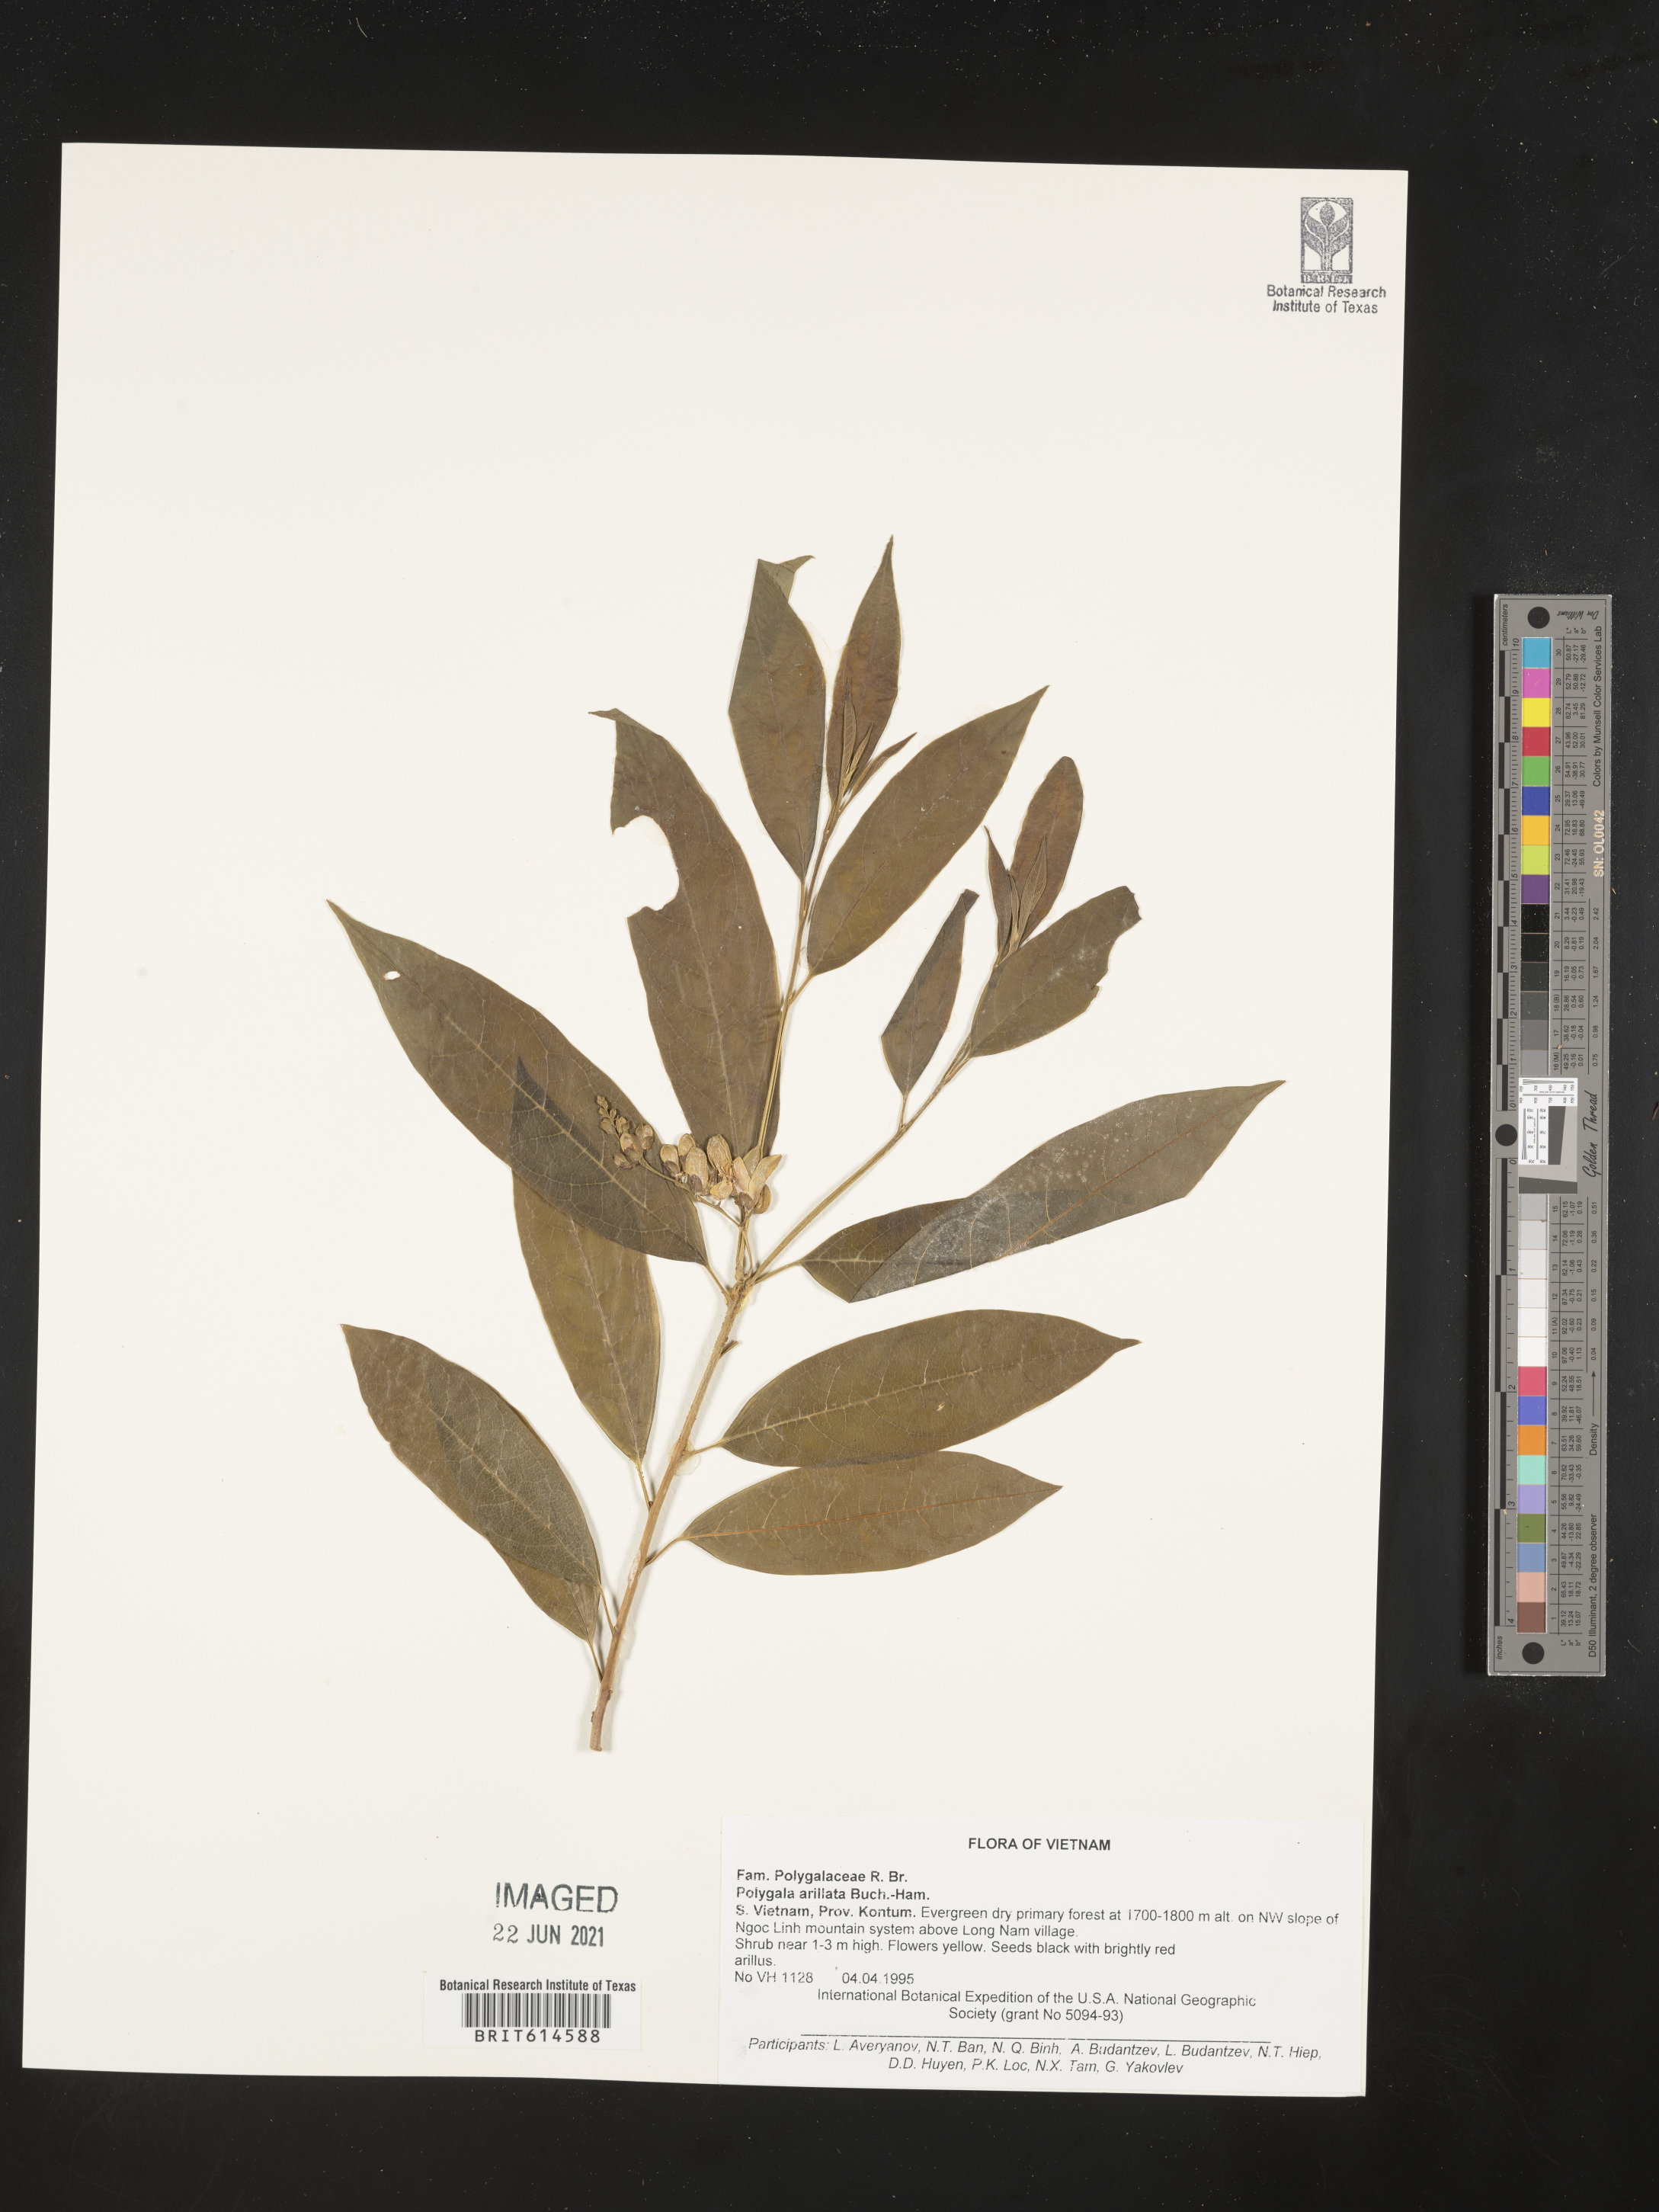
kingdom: Plantae
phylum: Tracheophyta
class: Magnoliopsida
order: Fabales
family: Polygalaceae
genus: Polygala
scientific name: Polygala arillata
